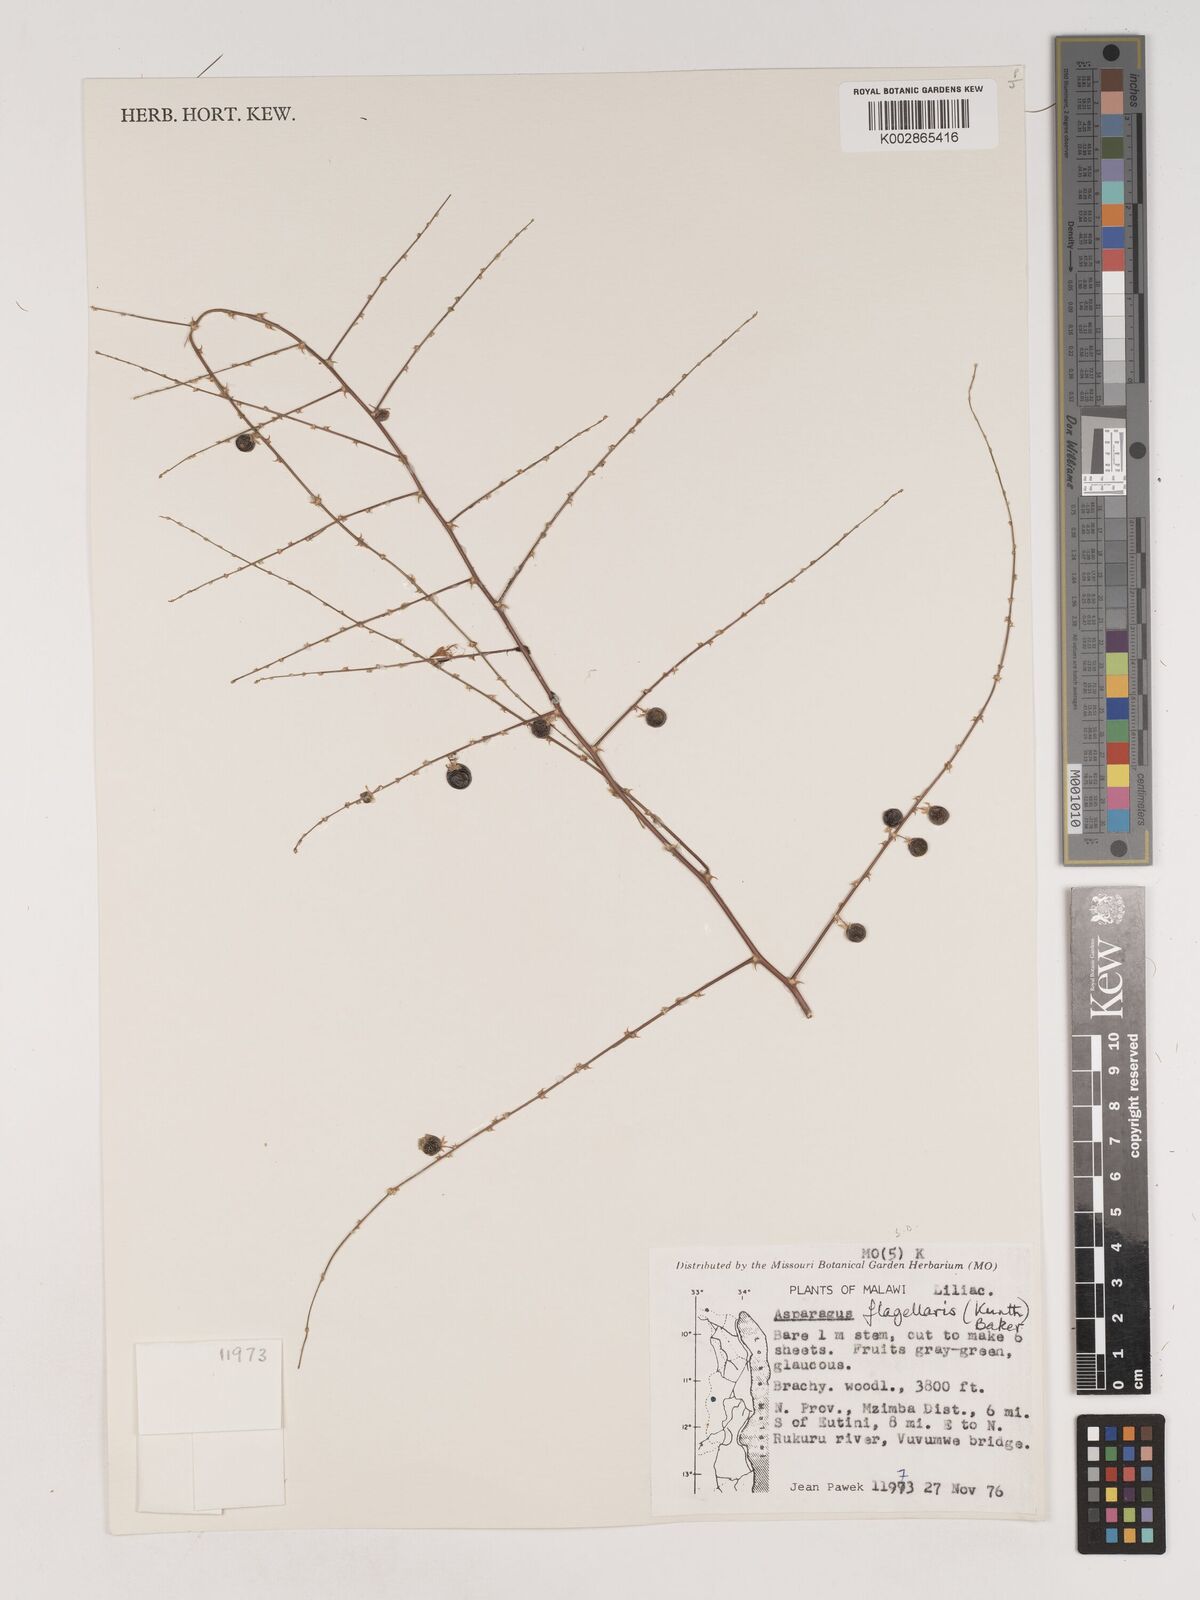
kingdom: Plantae
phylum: Tracheophyta
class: Liliopsida
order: Asparagales
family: Asparagaceae
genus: Asparagus
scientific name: Asparagus flagellaris
